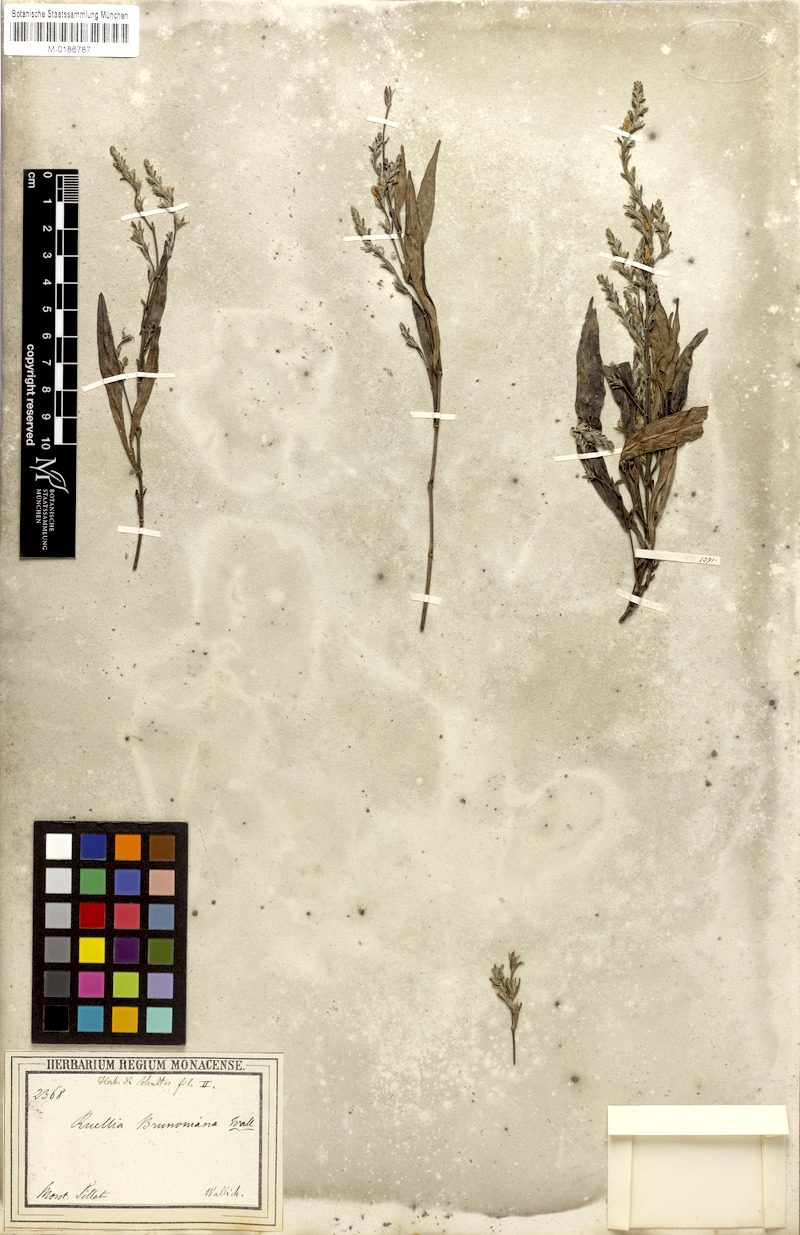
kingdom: Plantae
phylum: Tracheophyta
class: Magnoliopsida
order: Lamiales
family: Acanthaceae
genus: Strobilanthes
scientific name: Strobilanthes brunoniana
